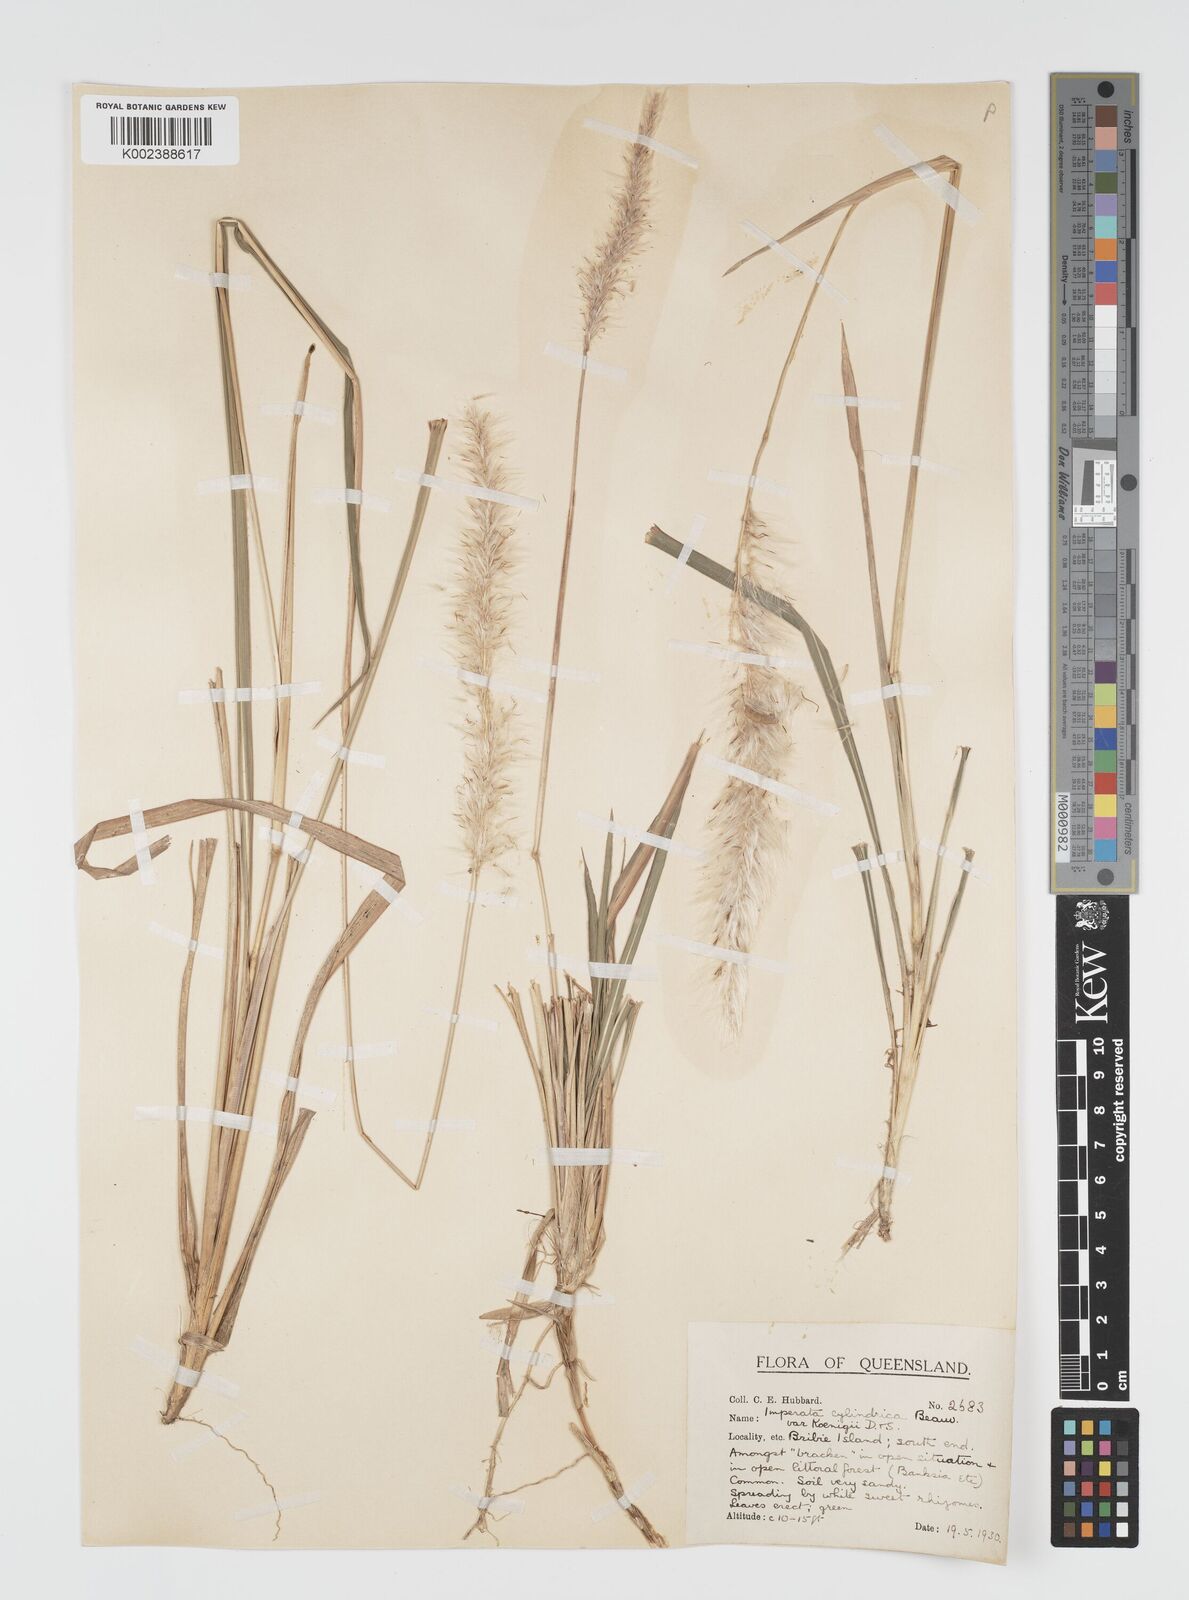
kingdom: Plantae
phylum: Tracheophyta
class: Liliopsida
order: Poales
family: Poaceae
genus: Imperata
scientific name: Imperata cylindrica
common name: Cogongrass
